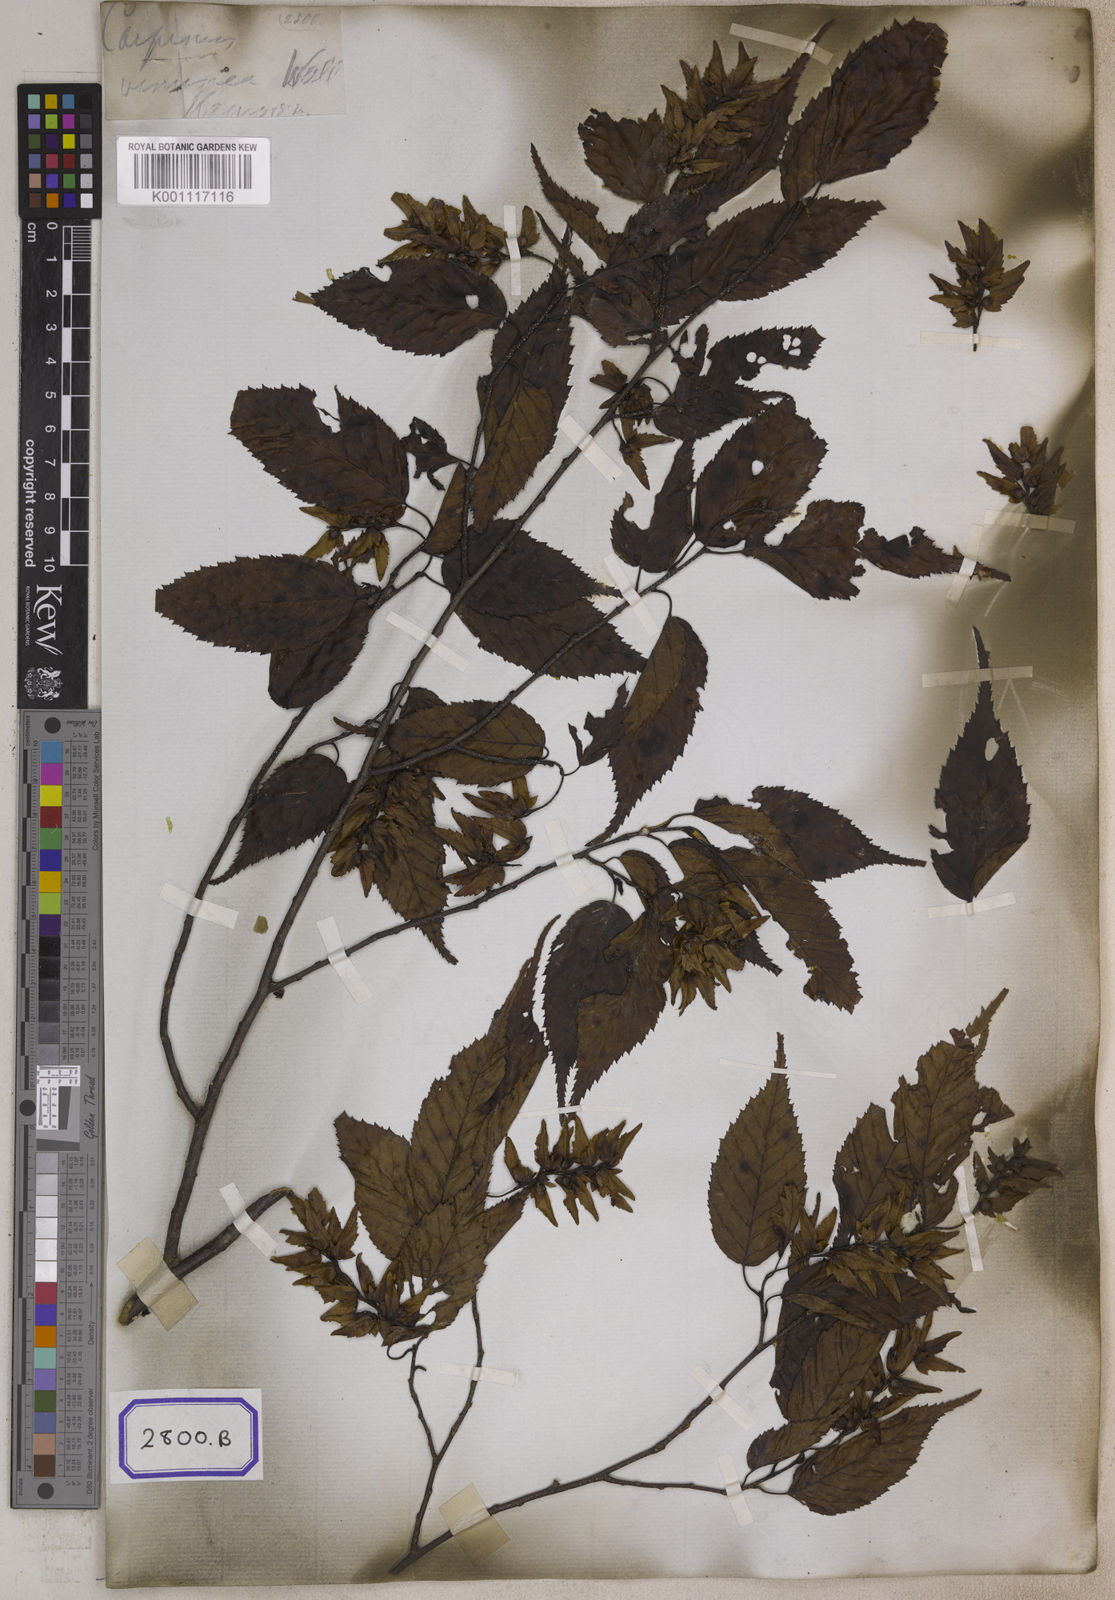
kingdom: Plantae
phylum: Tracheophyta
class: Magnoliopsida
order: Fagales
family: Betulaceae
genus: Carpinus
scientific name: Carpinus
